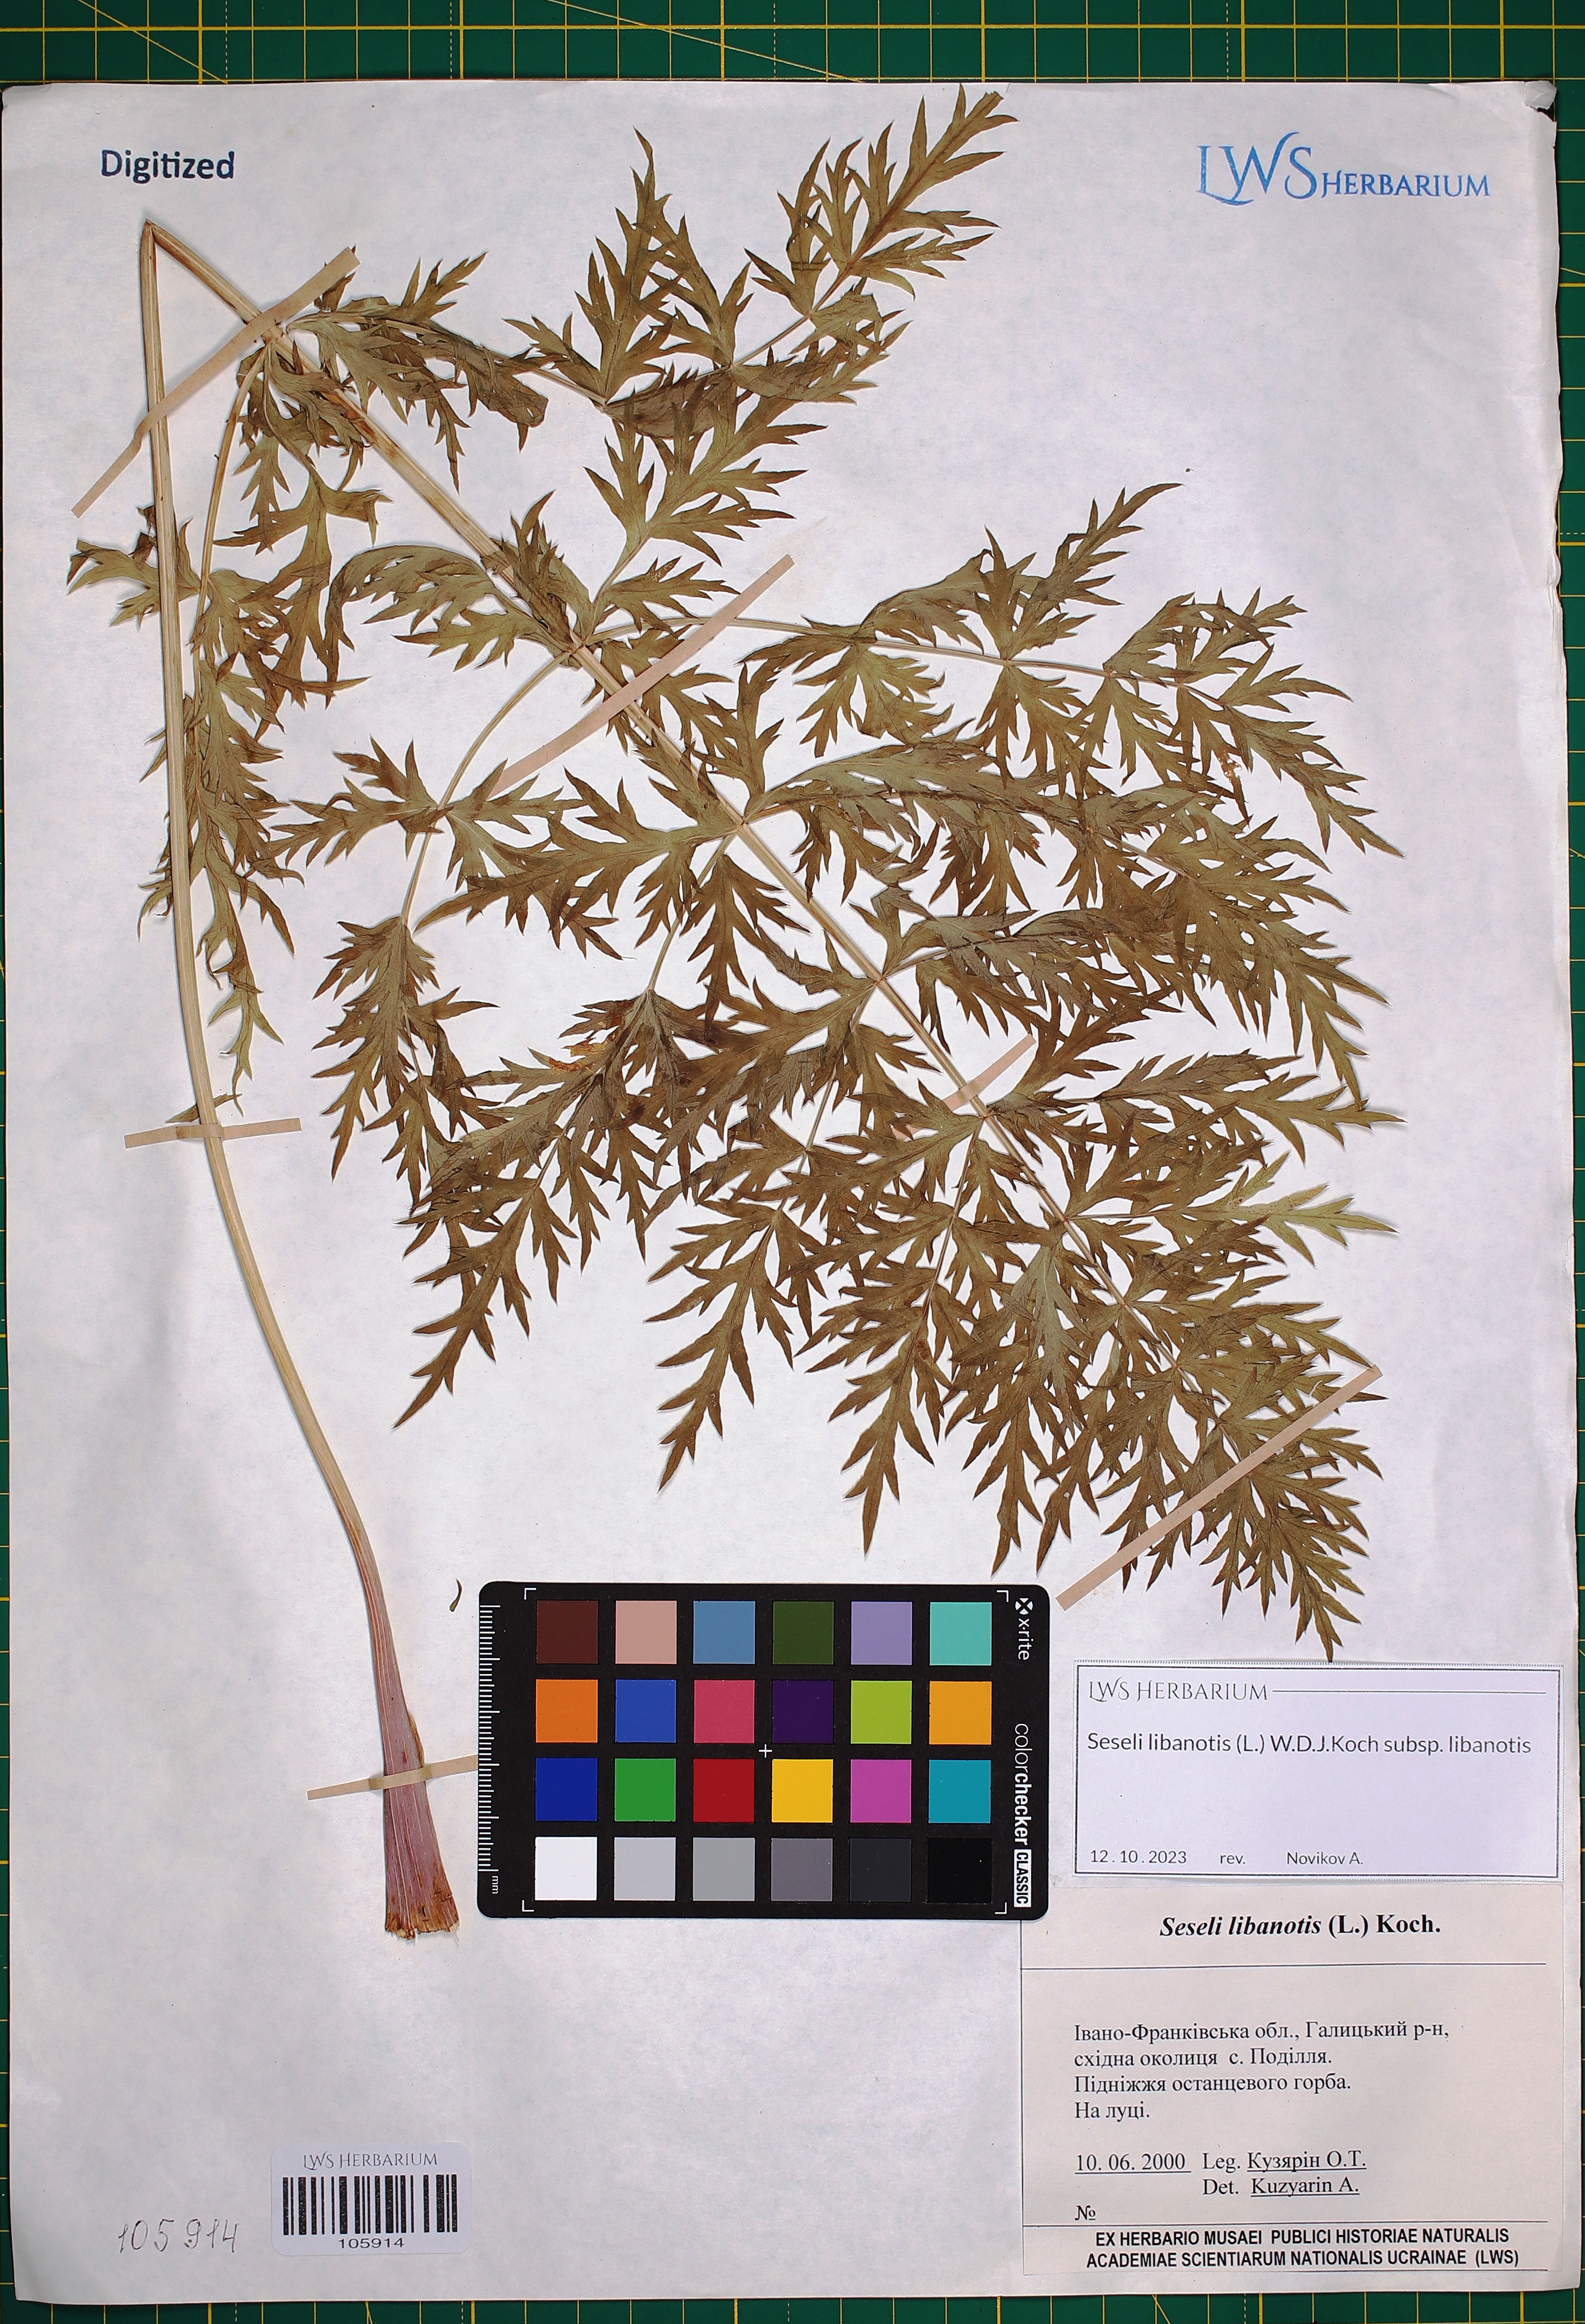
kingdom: Plantae
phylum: Tracheophyta
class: Magnoliopsida
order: Apiales
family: Apiaceae
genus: Seseli
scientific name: Seseli libanotis
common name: Mooncarrot
